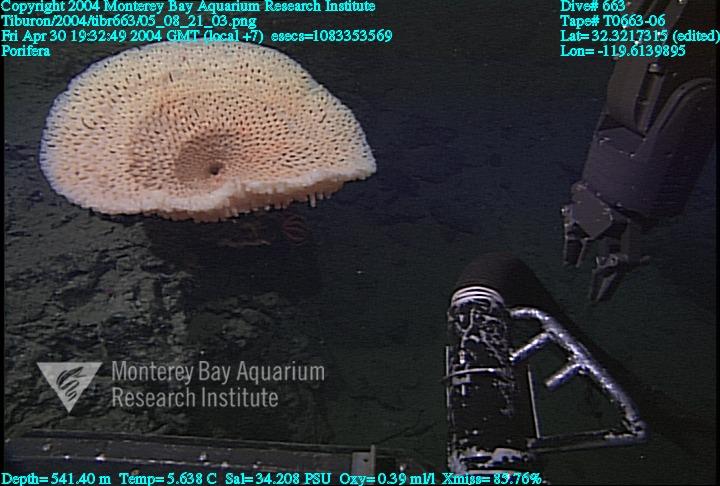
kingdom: Animalia
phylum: Porifera
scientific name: Porifera
